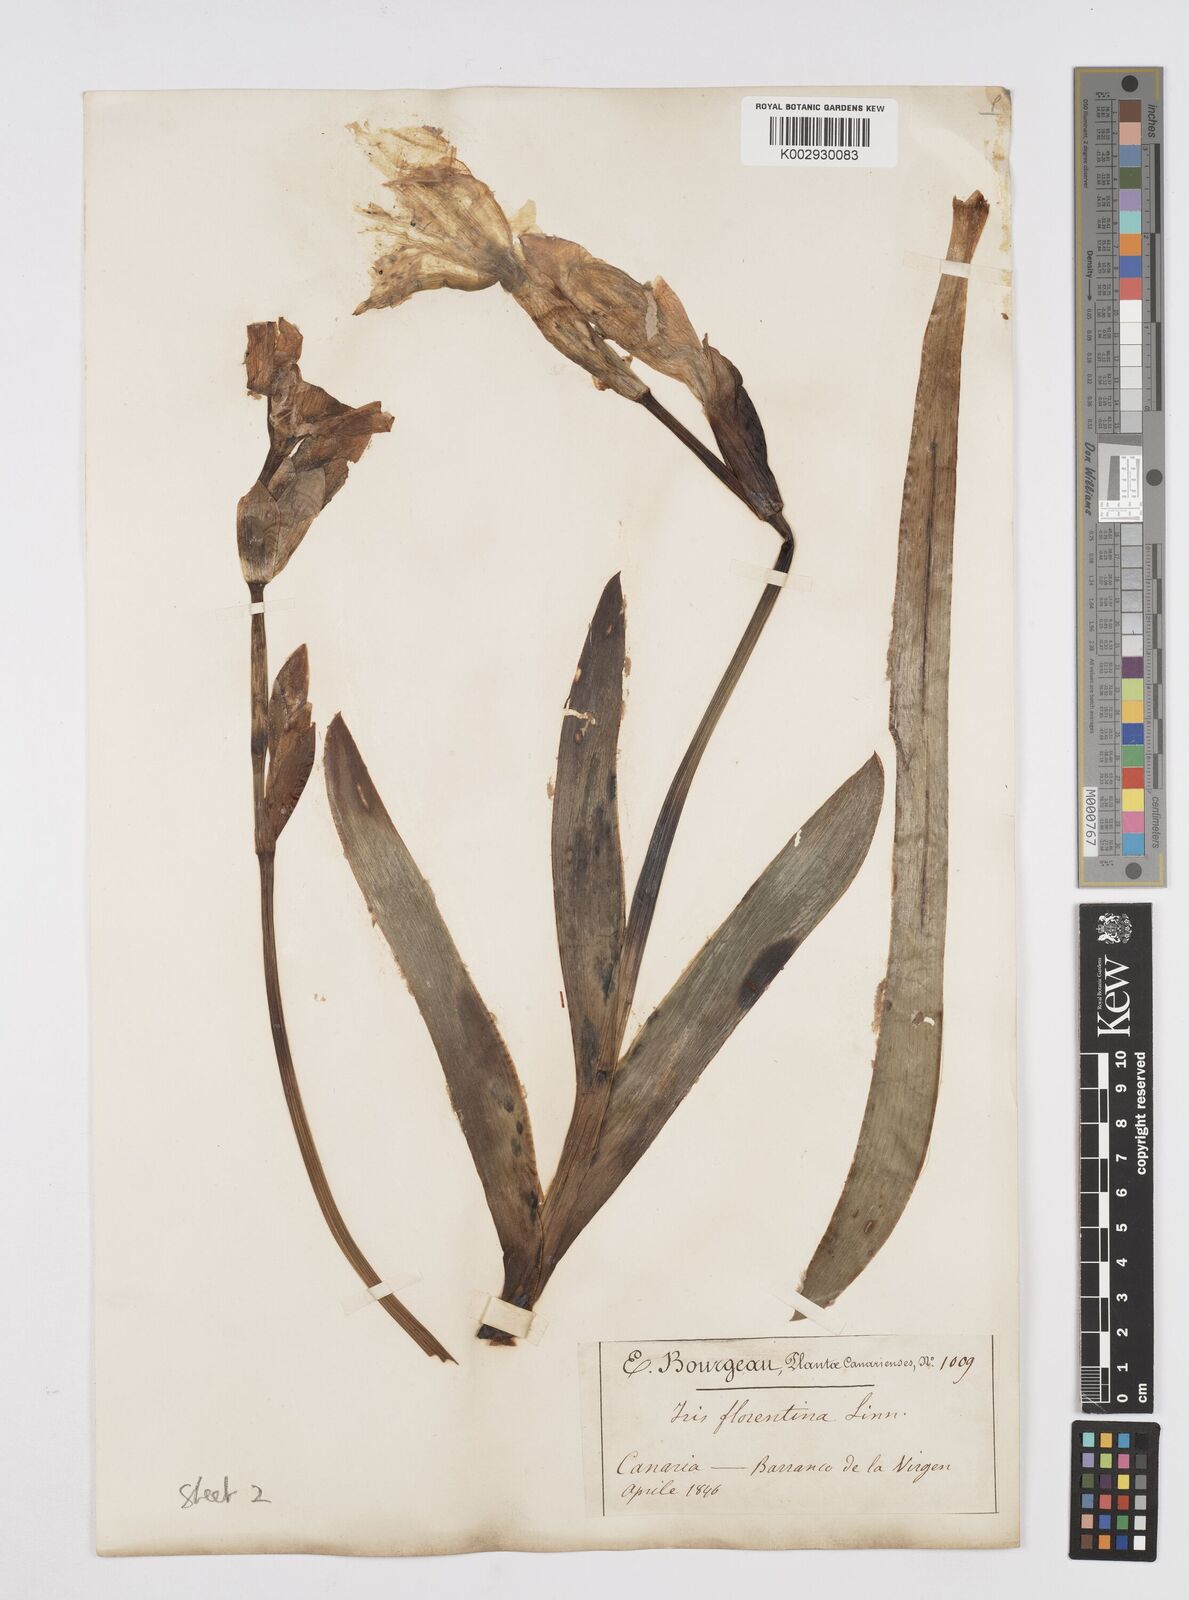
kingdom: Plantae
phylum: Tracheophyta
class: Liliopsida
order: Asparagales
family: Iridaceae
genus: Iris
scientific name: Iris florentina
